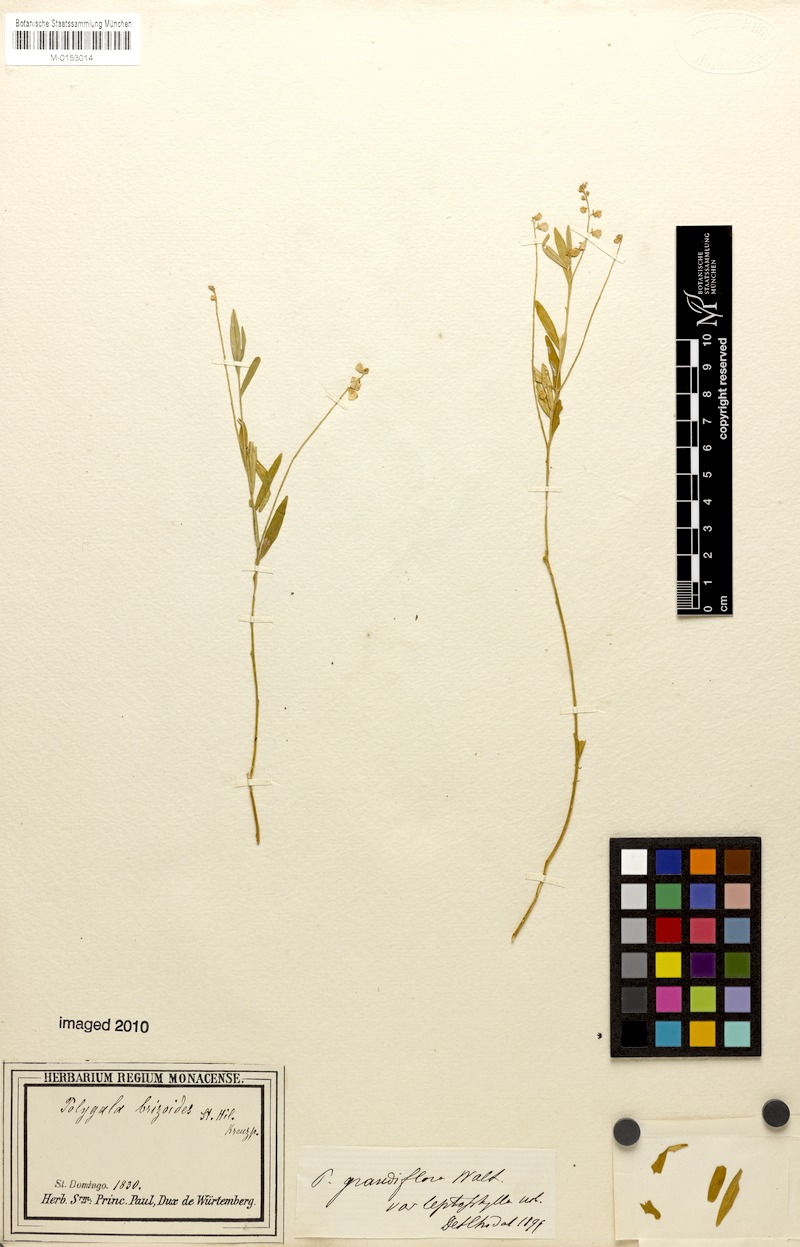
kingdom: Plantae
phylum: Tracheophyta
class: Magnoliopsida
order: Fabales
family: Polygalaceae
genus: Asemeia
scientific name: Asemeia grandiflora
